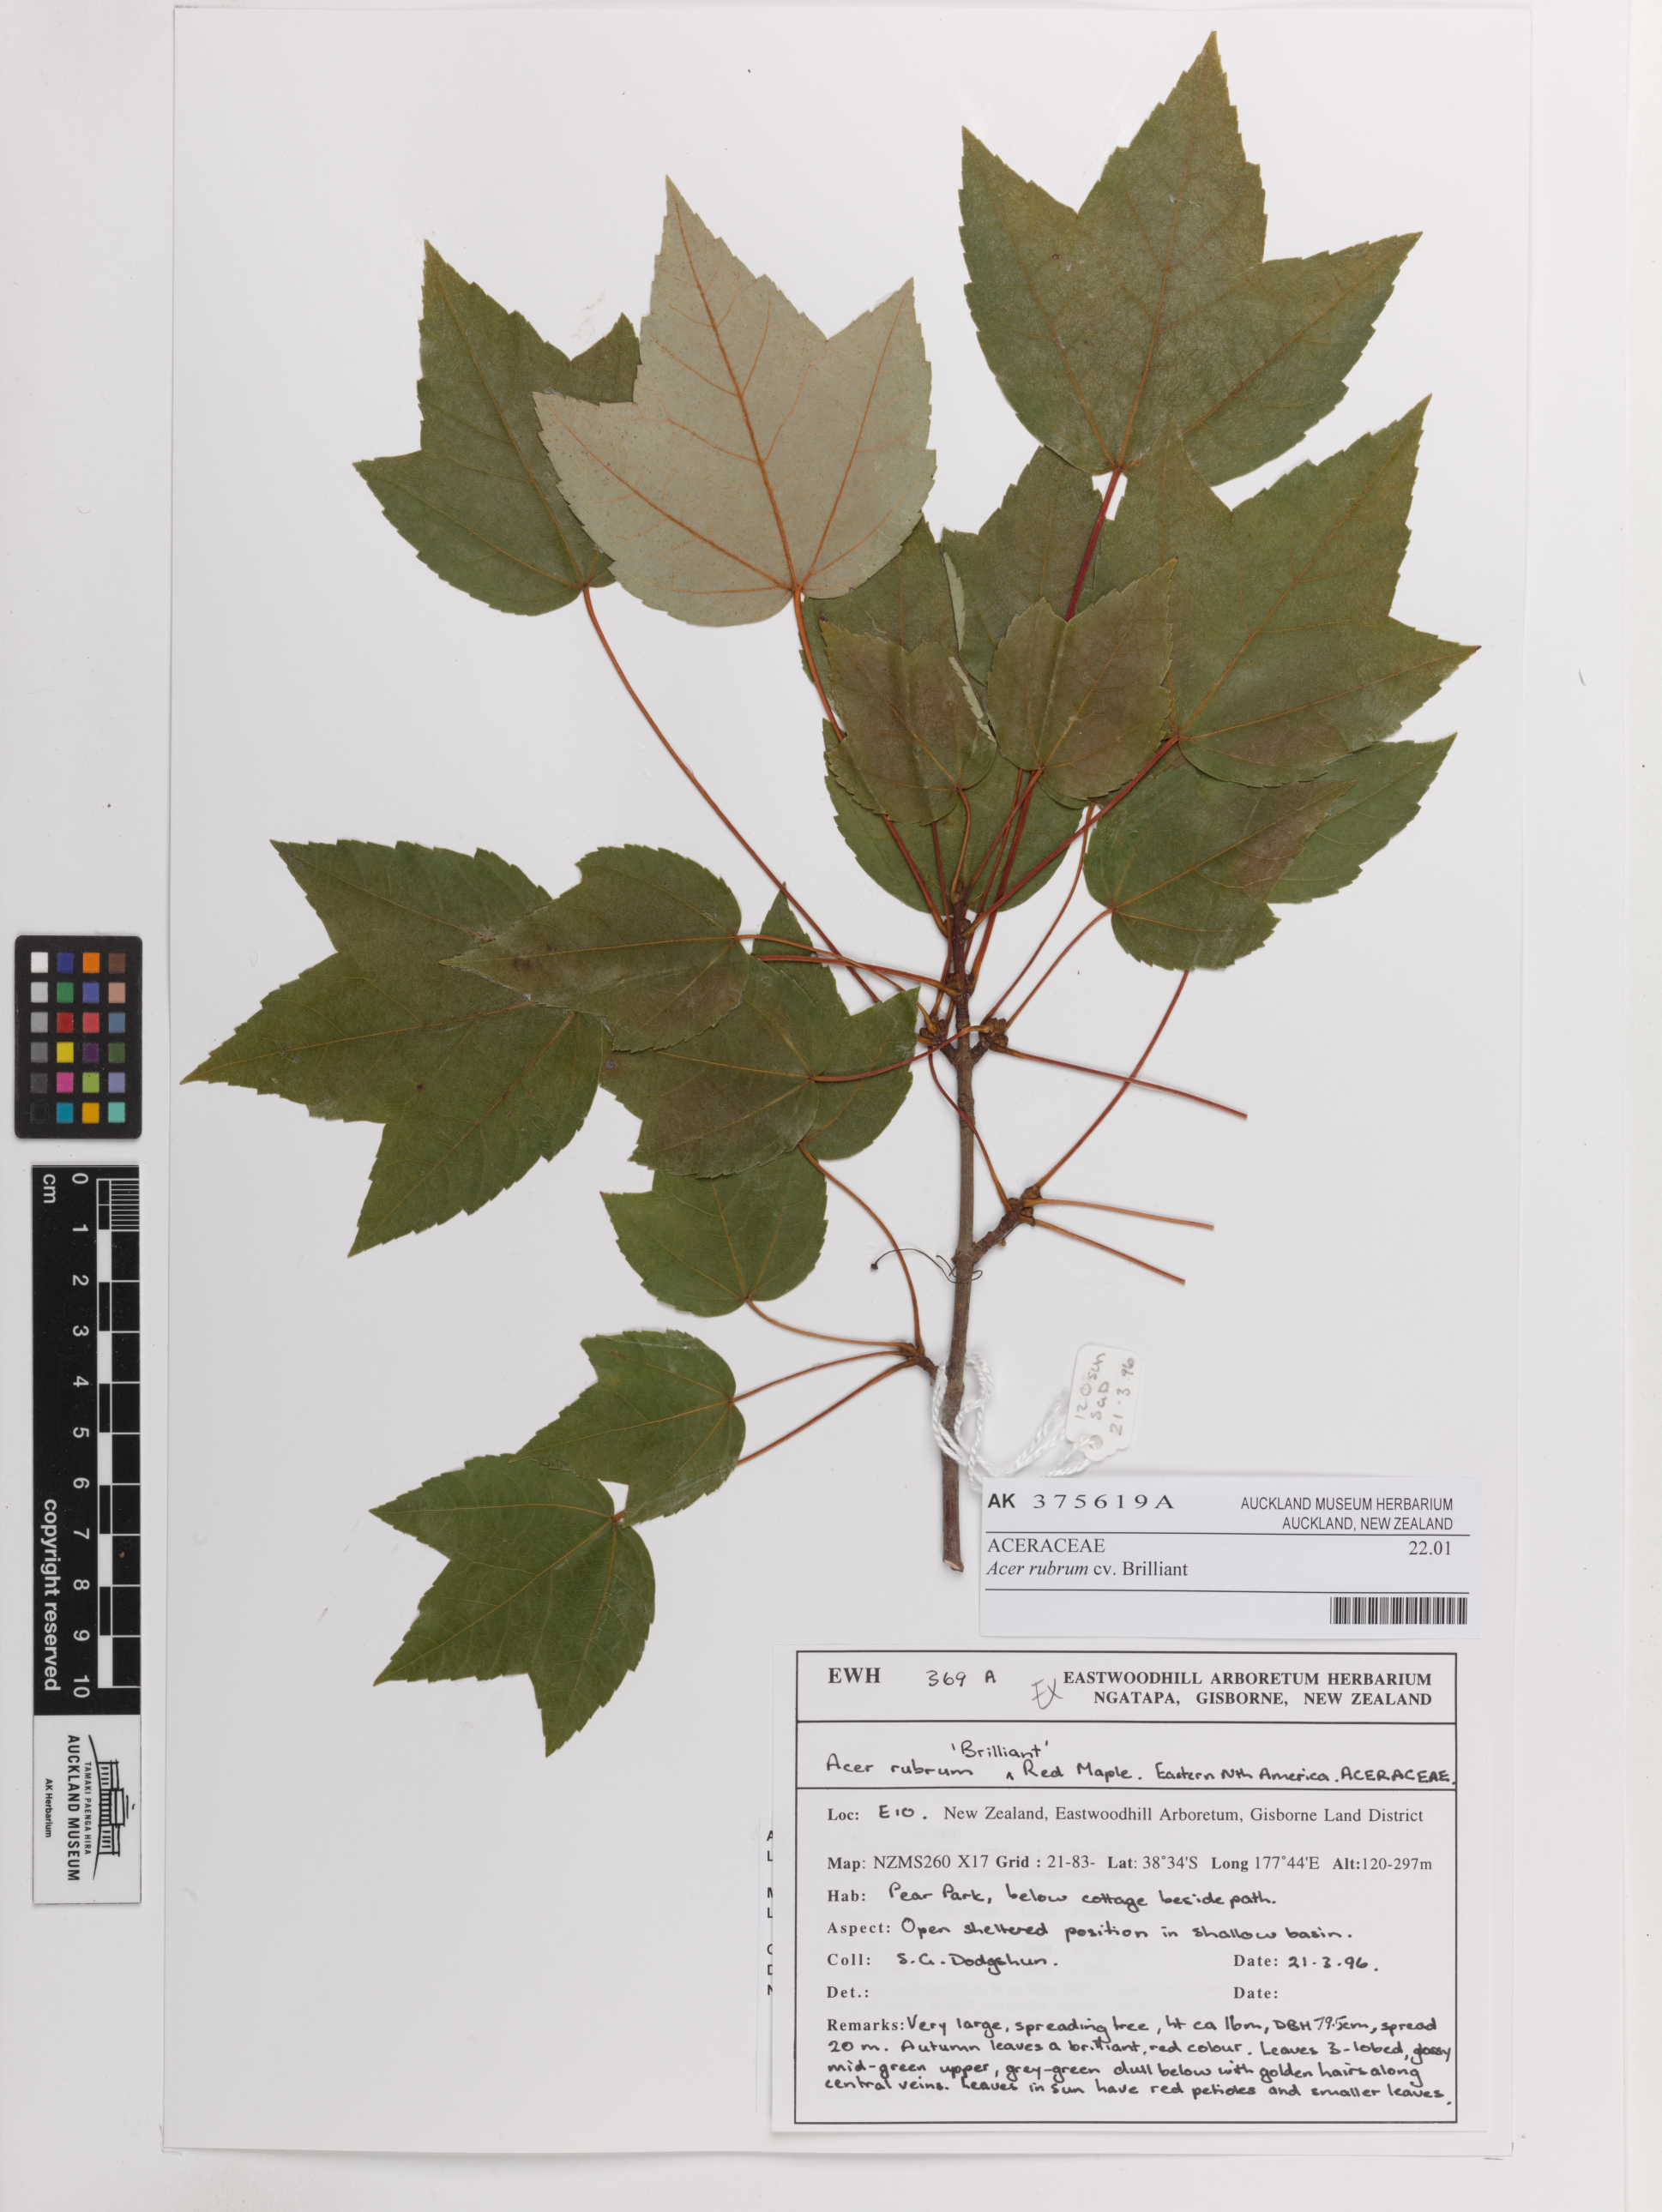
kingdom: Plantae
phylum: Tracheophyta
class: Magnoliopsida
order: Sapindales
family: Sapindaceae
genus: Acer
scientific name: Acer rubrum
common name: Red maple
